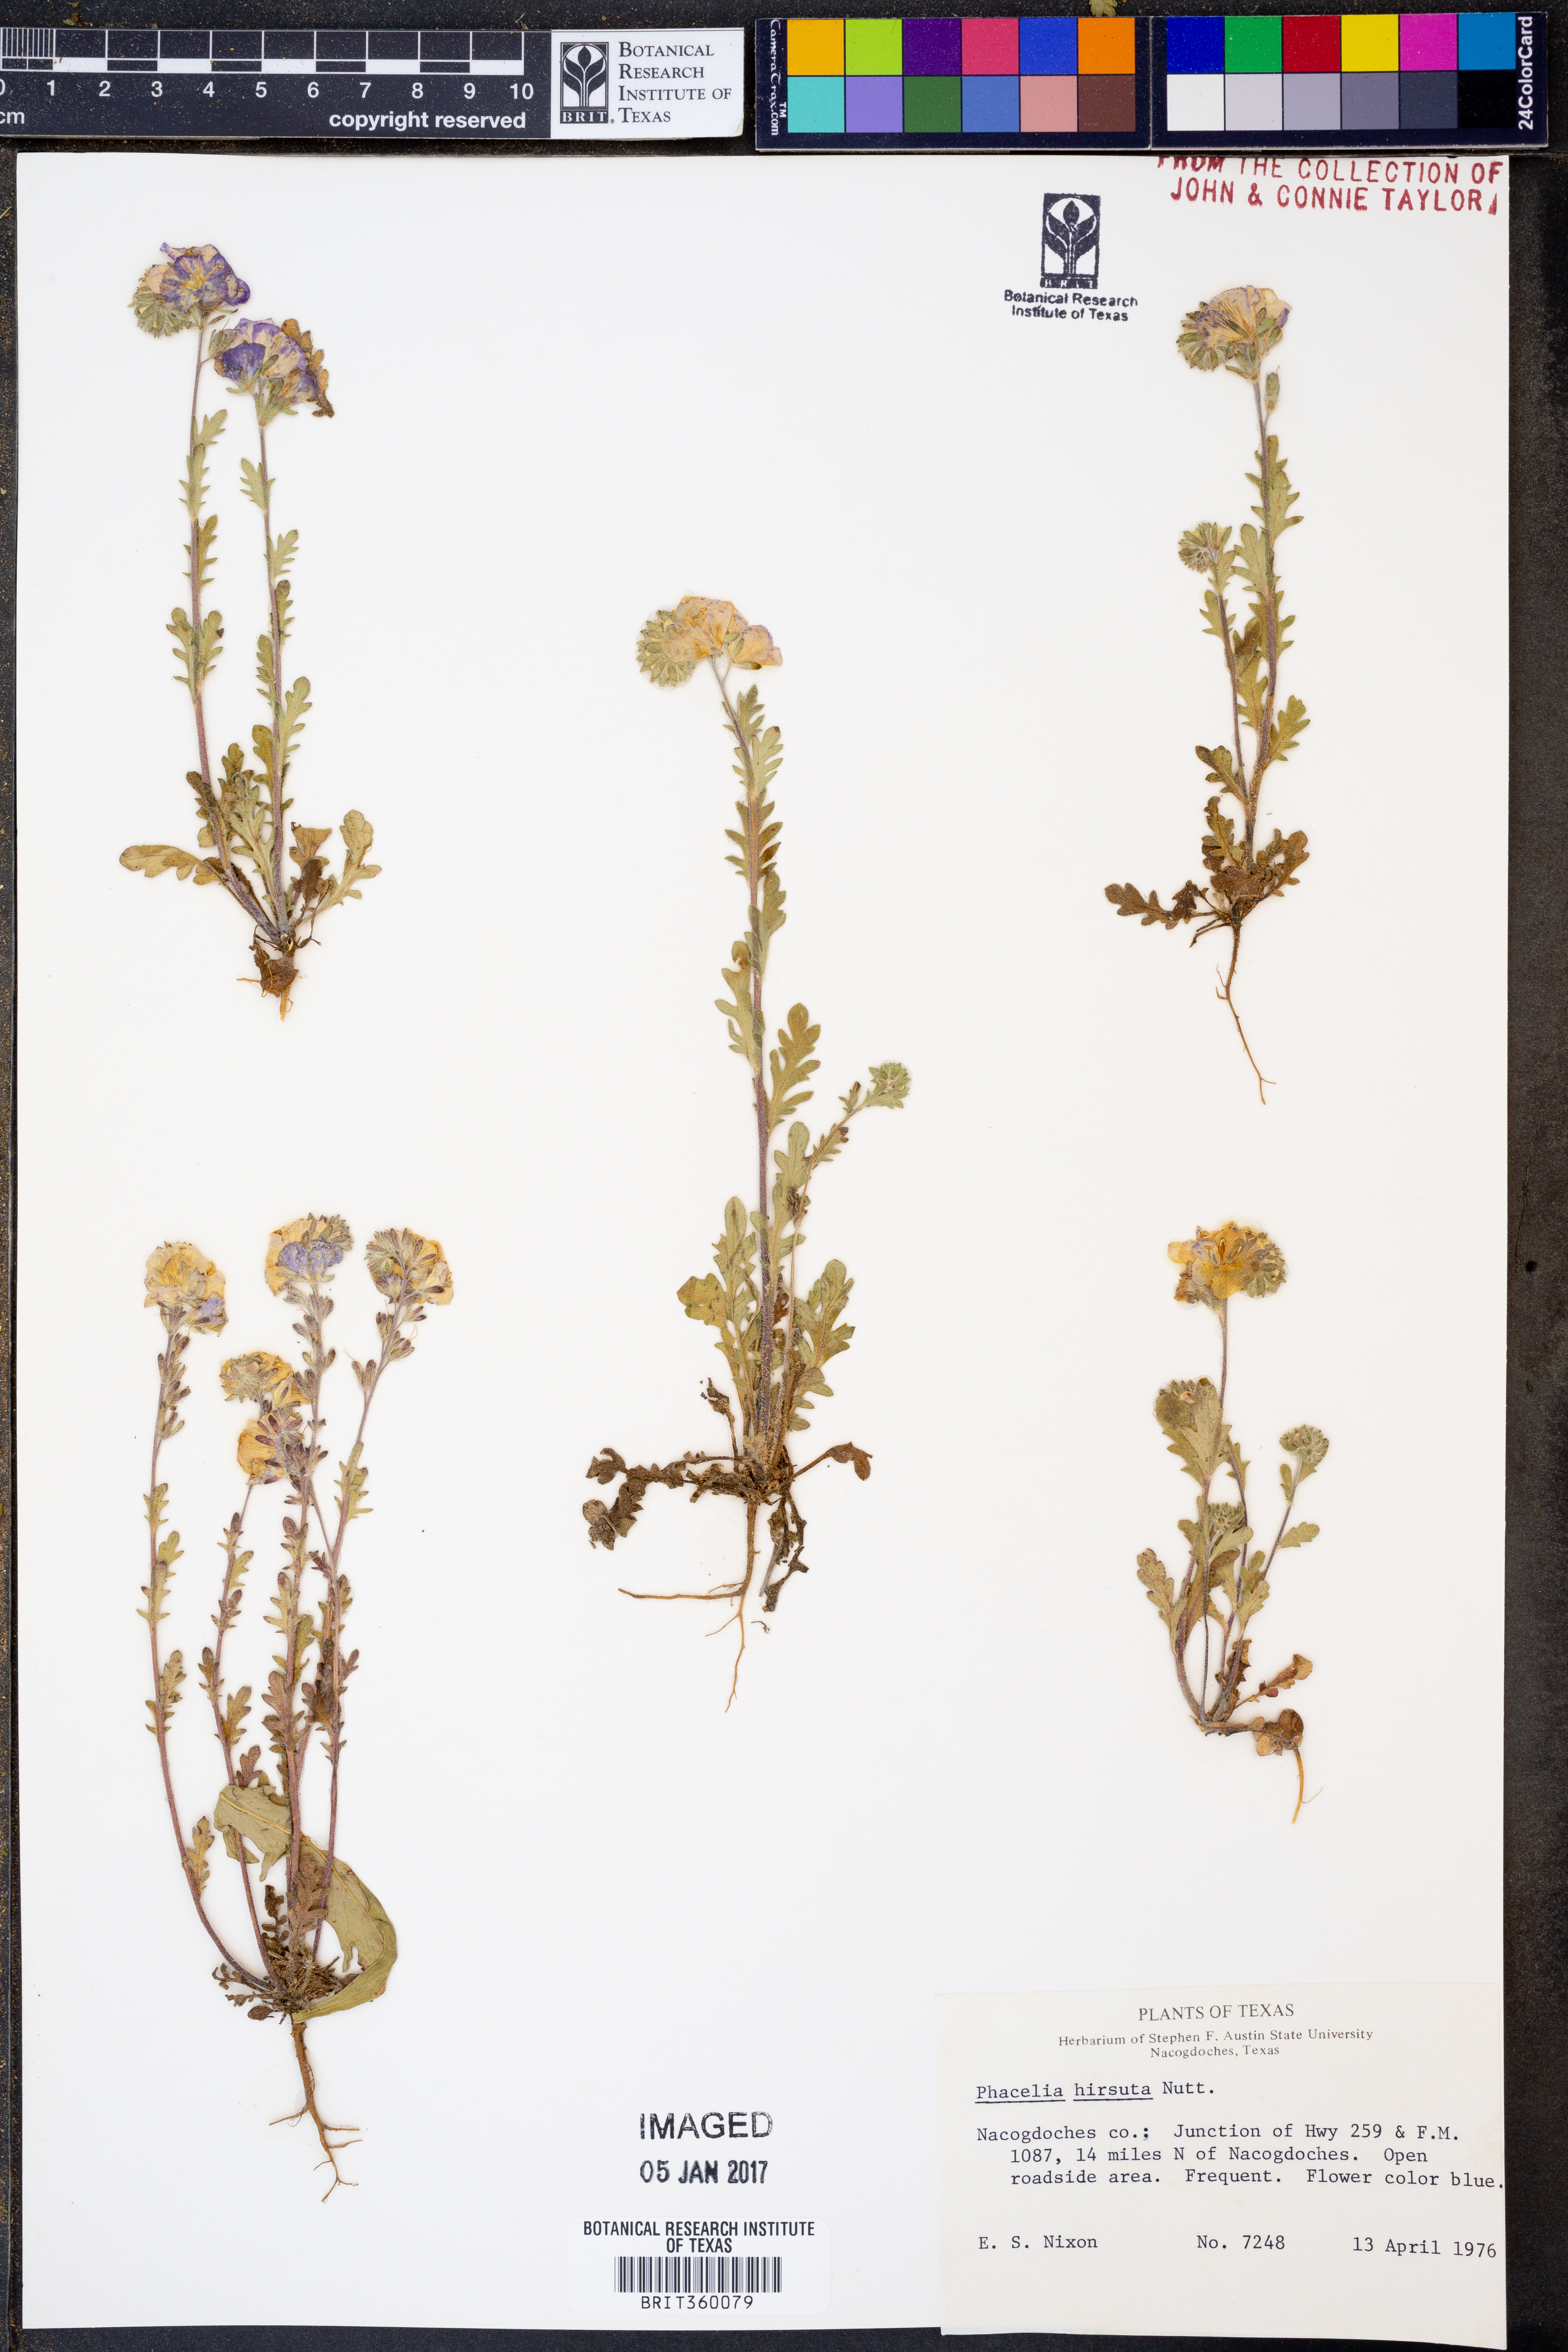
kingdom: Plantae
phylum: Tracheophyta
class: Magnoliopsida
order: Boraginales
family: Hydrophyllaceae
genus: Phacelia
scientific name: Phacelia hirsuta
